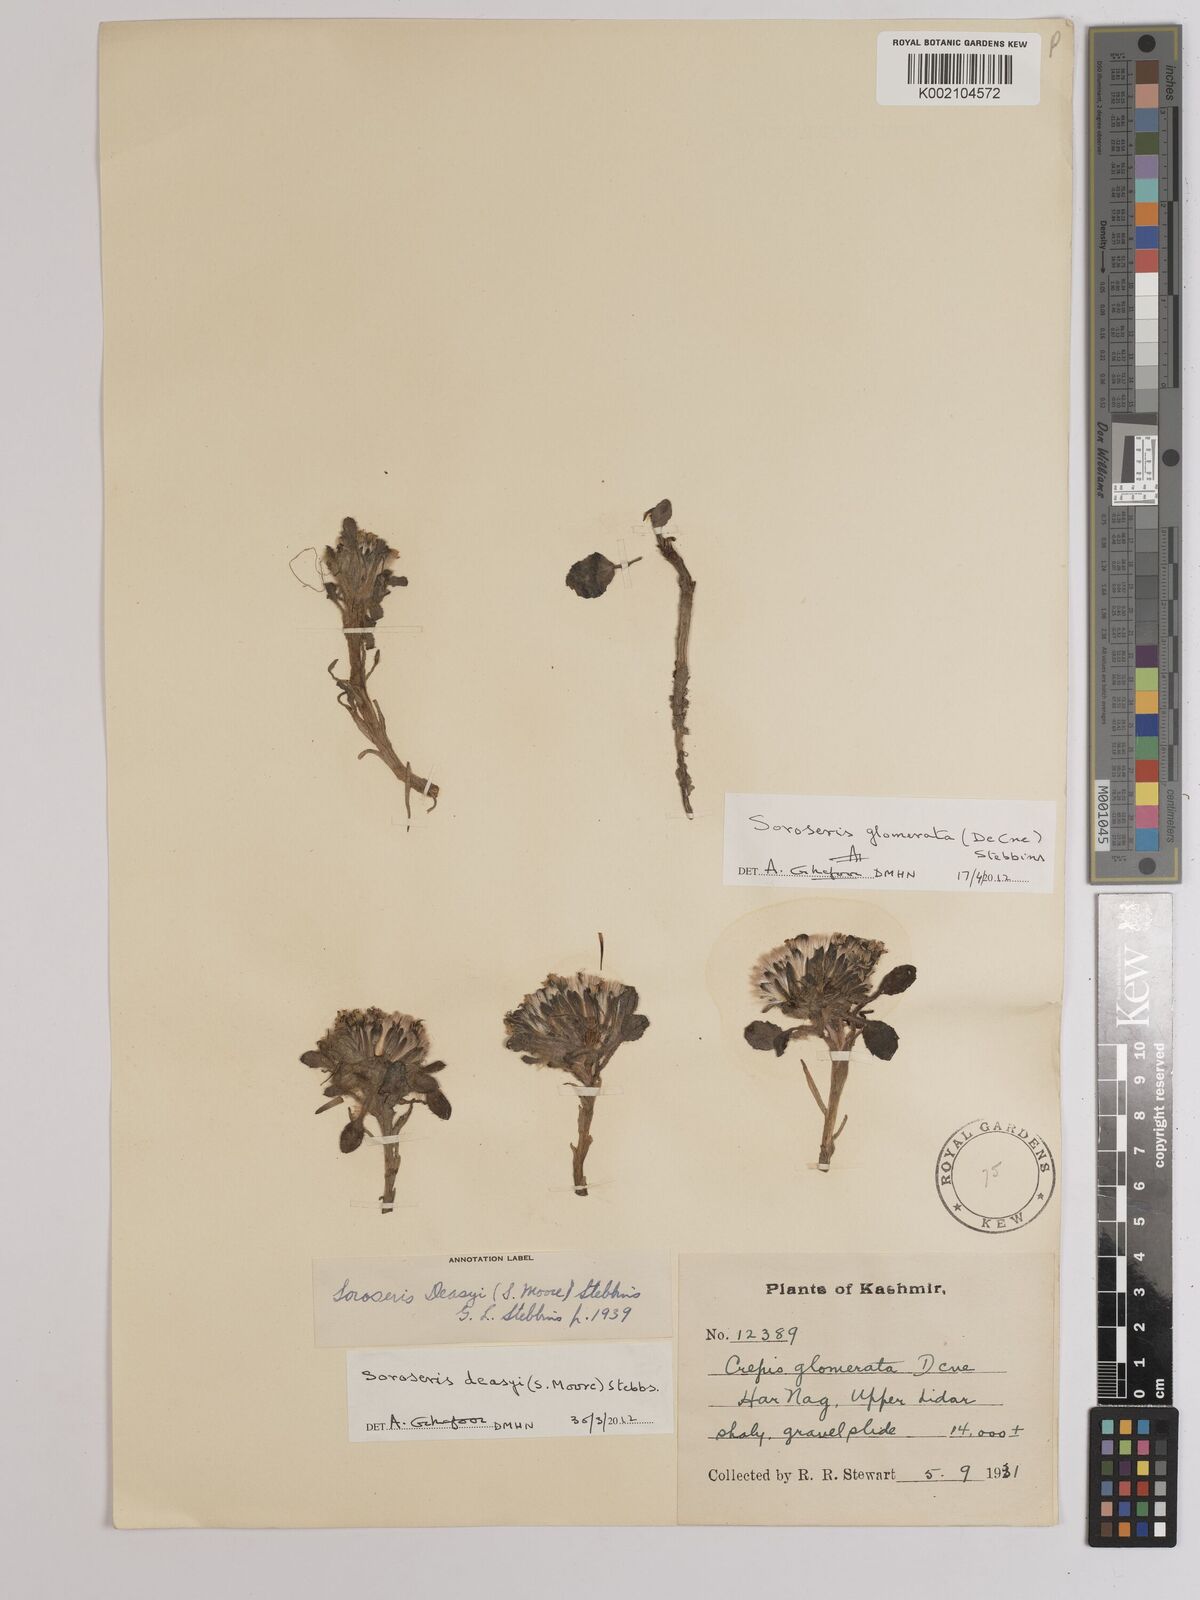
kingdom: Plantae
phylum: Tracheophyta
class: Magnoliopsida
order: Asterales
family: Asteraceae
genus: Soroseris
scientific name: Soroseris deasyi
